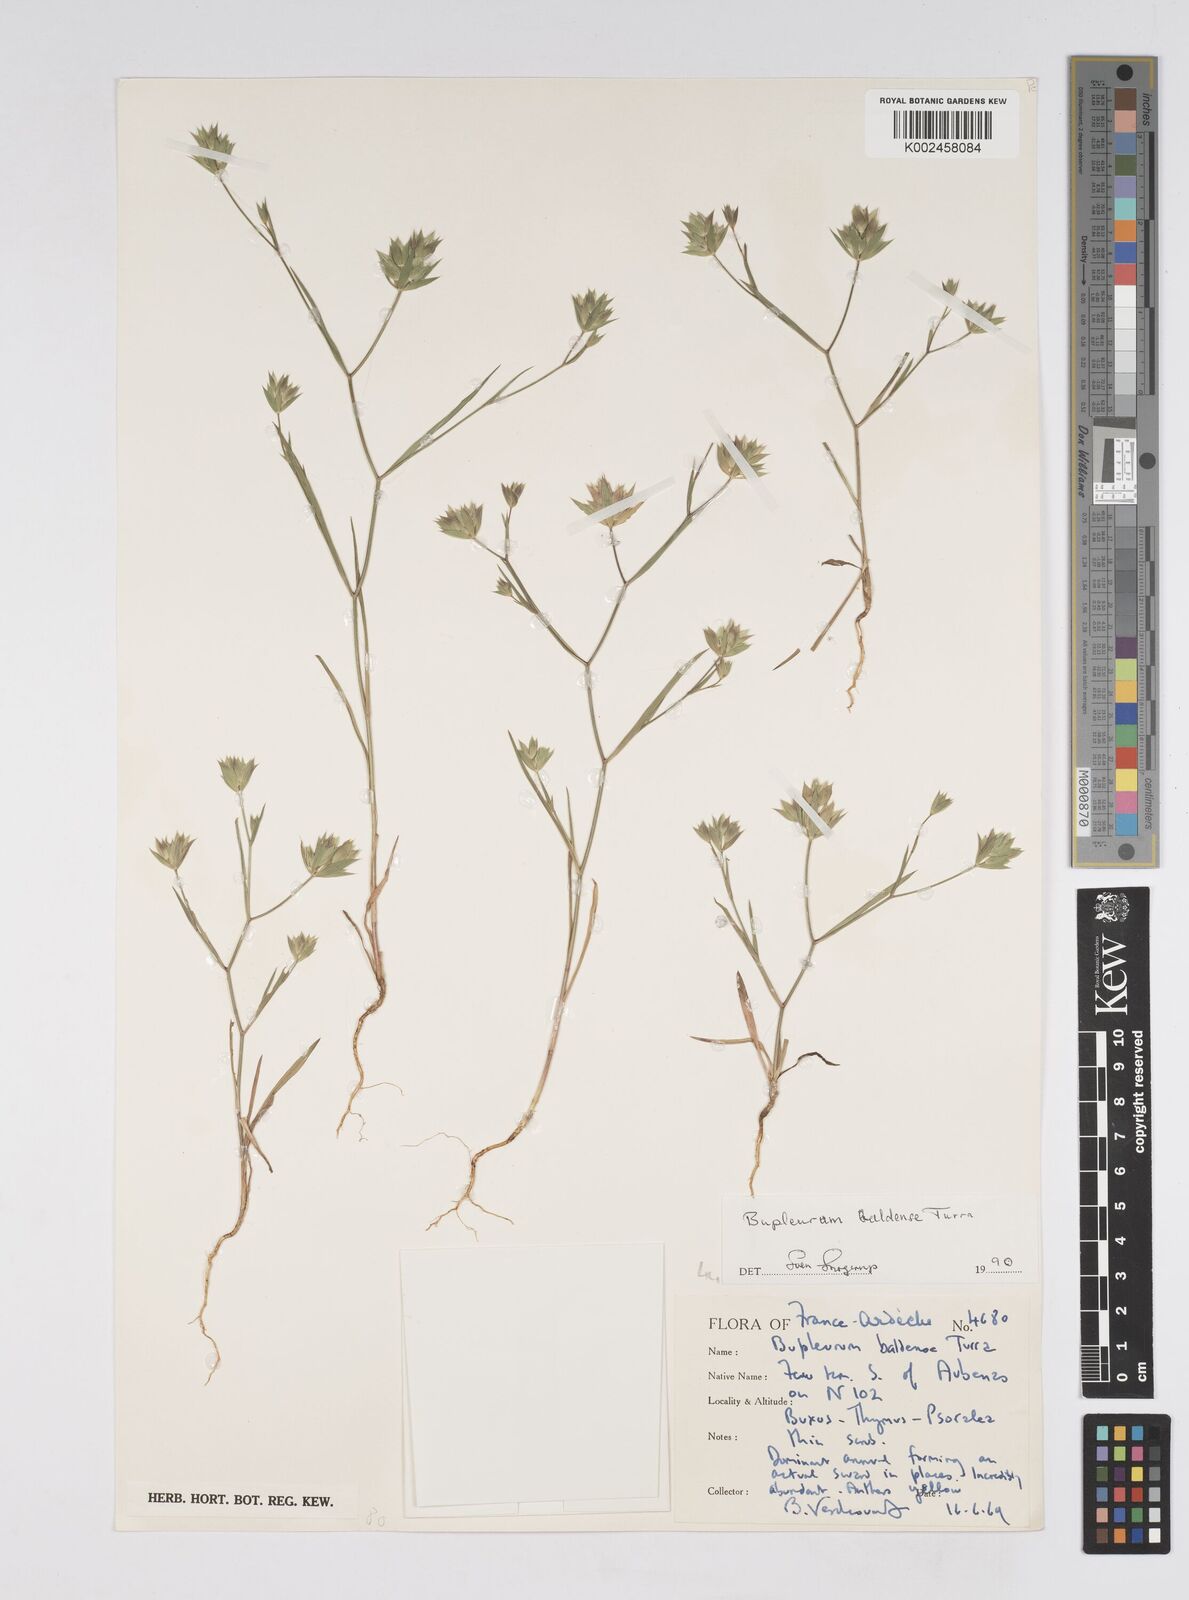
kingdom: Plantae
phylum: Tracheophyta
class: Magnoliopsida
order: Apiales
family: Apiaceae
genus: Bupleurum
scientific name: Bupleurum baldense
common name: Small hare's-ear
